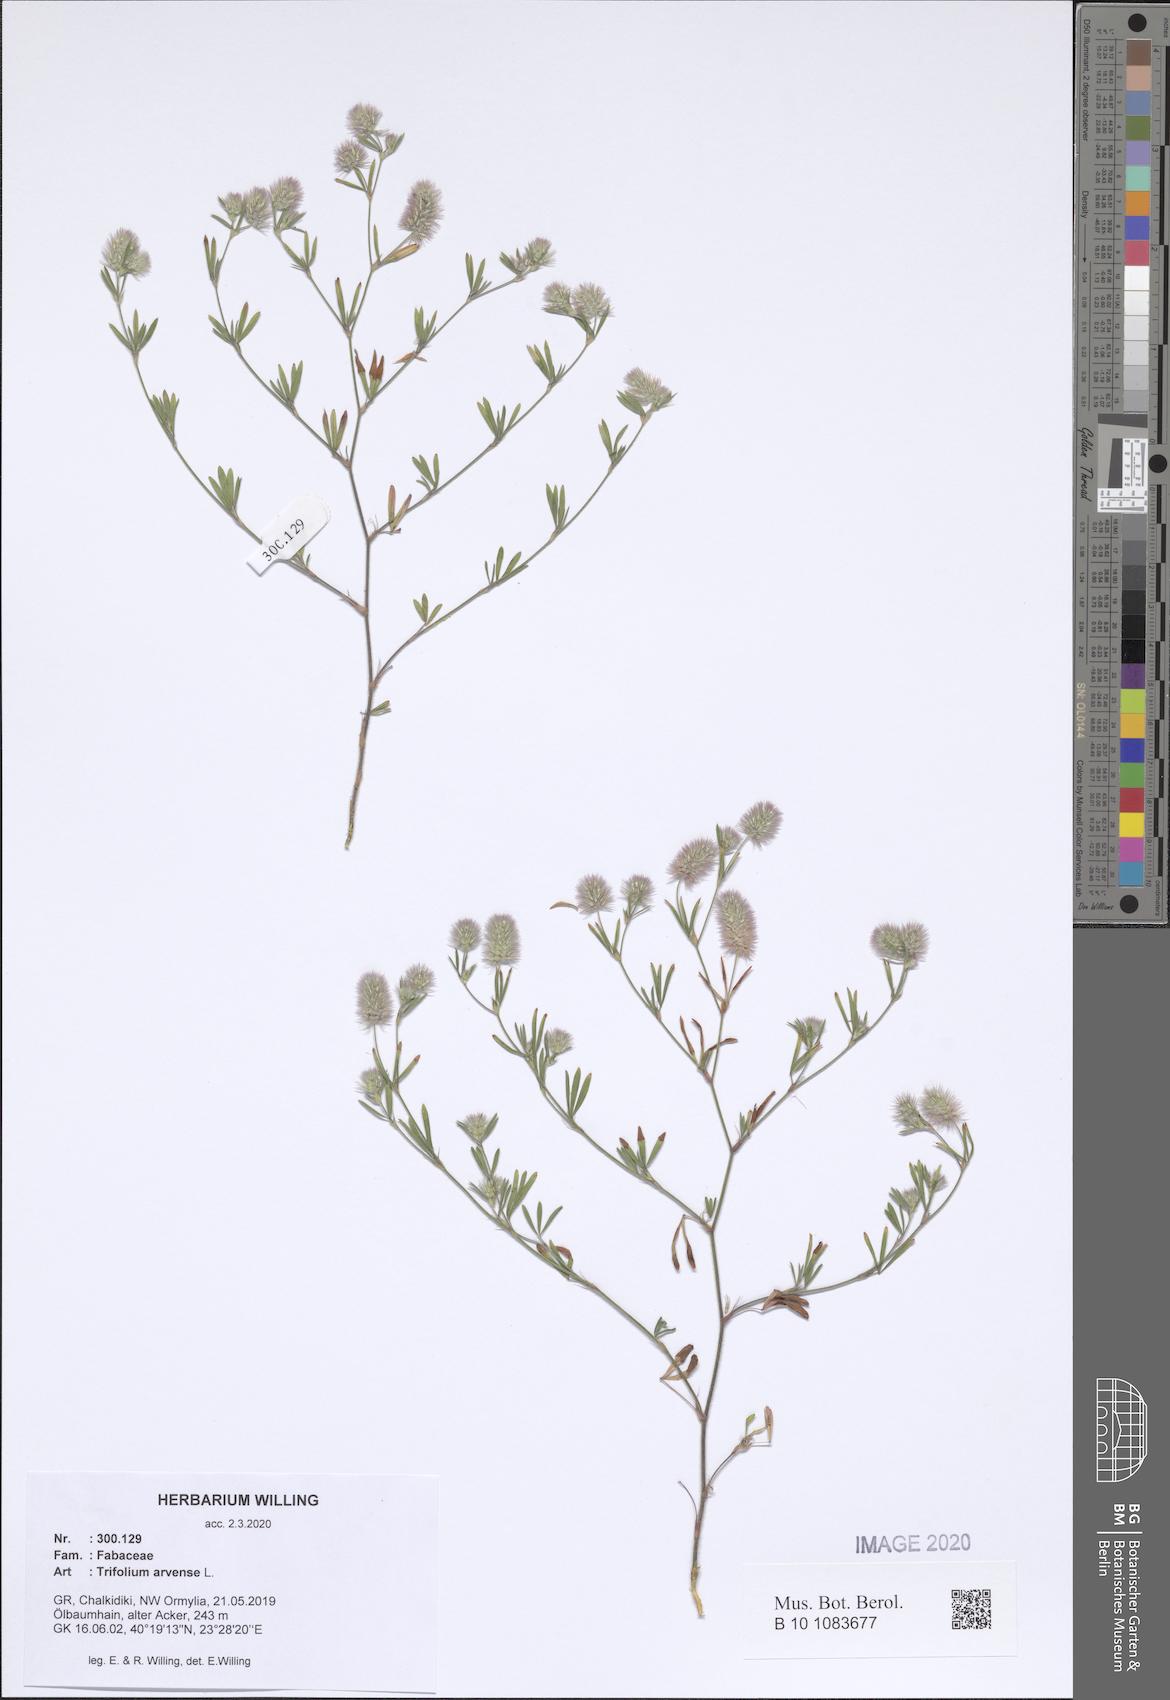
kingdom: Plantae
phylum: Tracheophyta
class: Magnoliopsida
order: Fabales
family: Fabaceae
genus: Trifolium
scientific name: Trifolium arvense
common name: Hare's-foot clover
